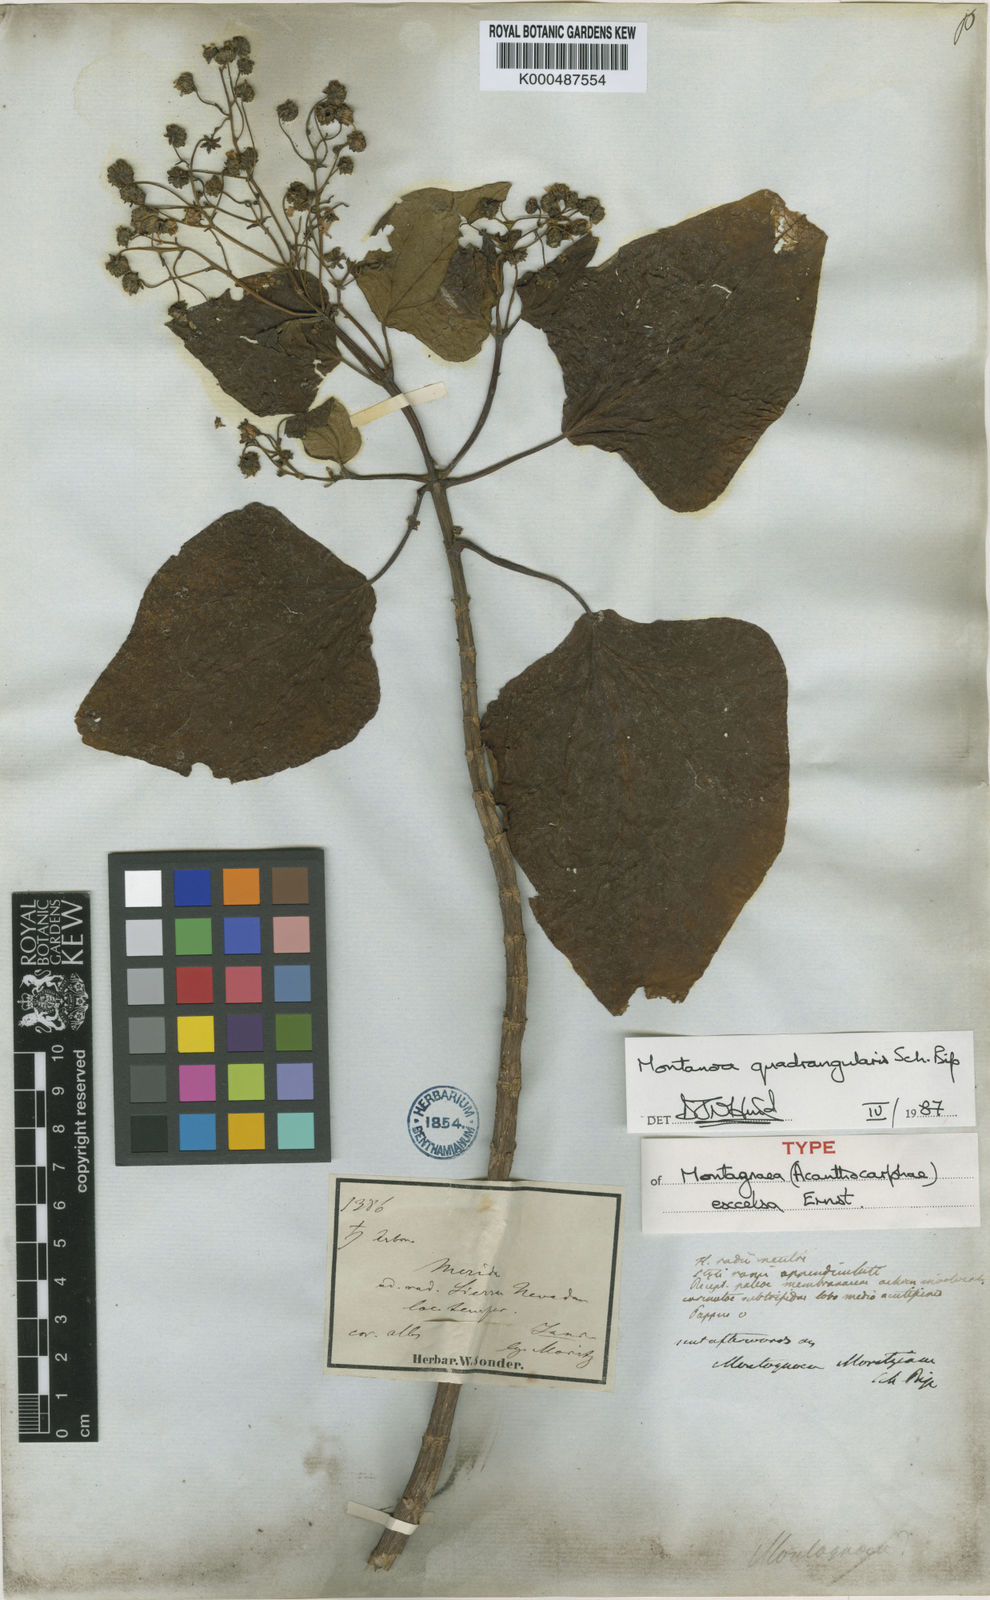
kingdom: Plantae
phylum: Tracheophyta
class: Magnoliopsida
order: Asterales
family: Asteraceae
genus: Montanoa
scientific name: Montanoa quadrangularis
